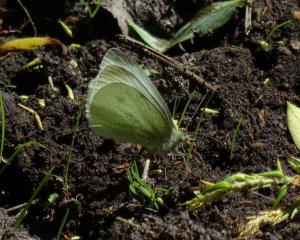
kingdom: Animalia
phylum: Arthropoda
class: Insecta
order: Lepidoptera
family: Pieridae
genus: Pieris
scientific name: Pieris rapae
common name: Cabbage White
